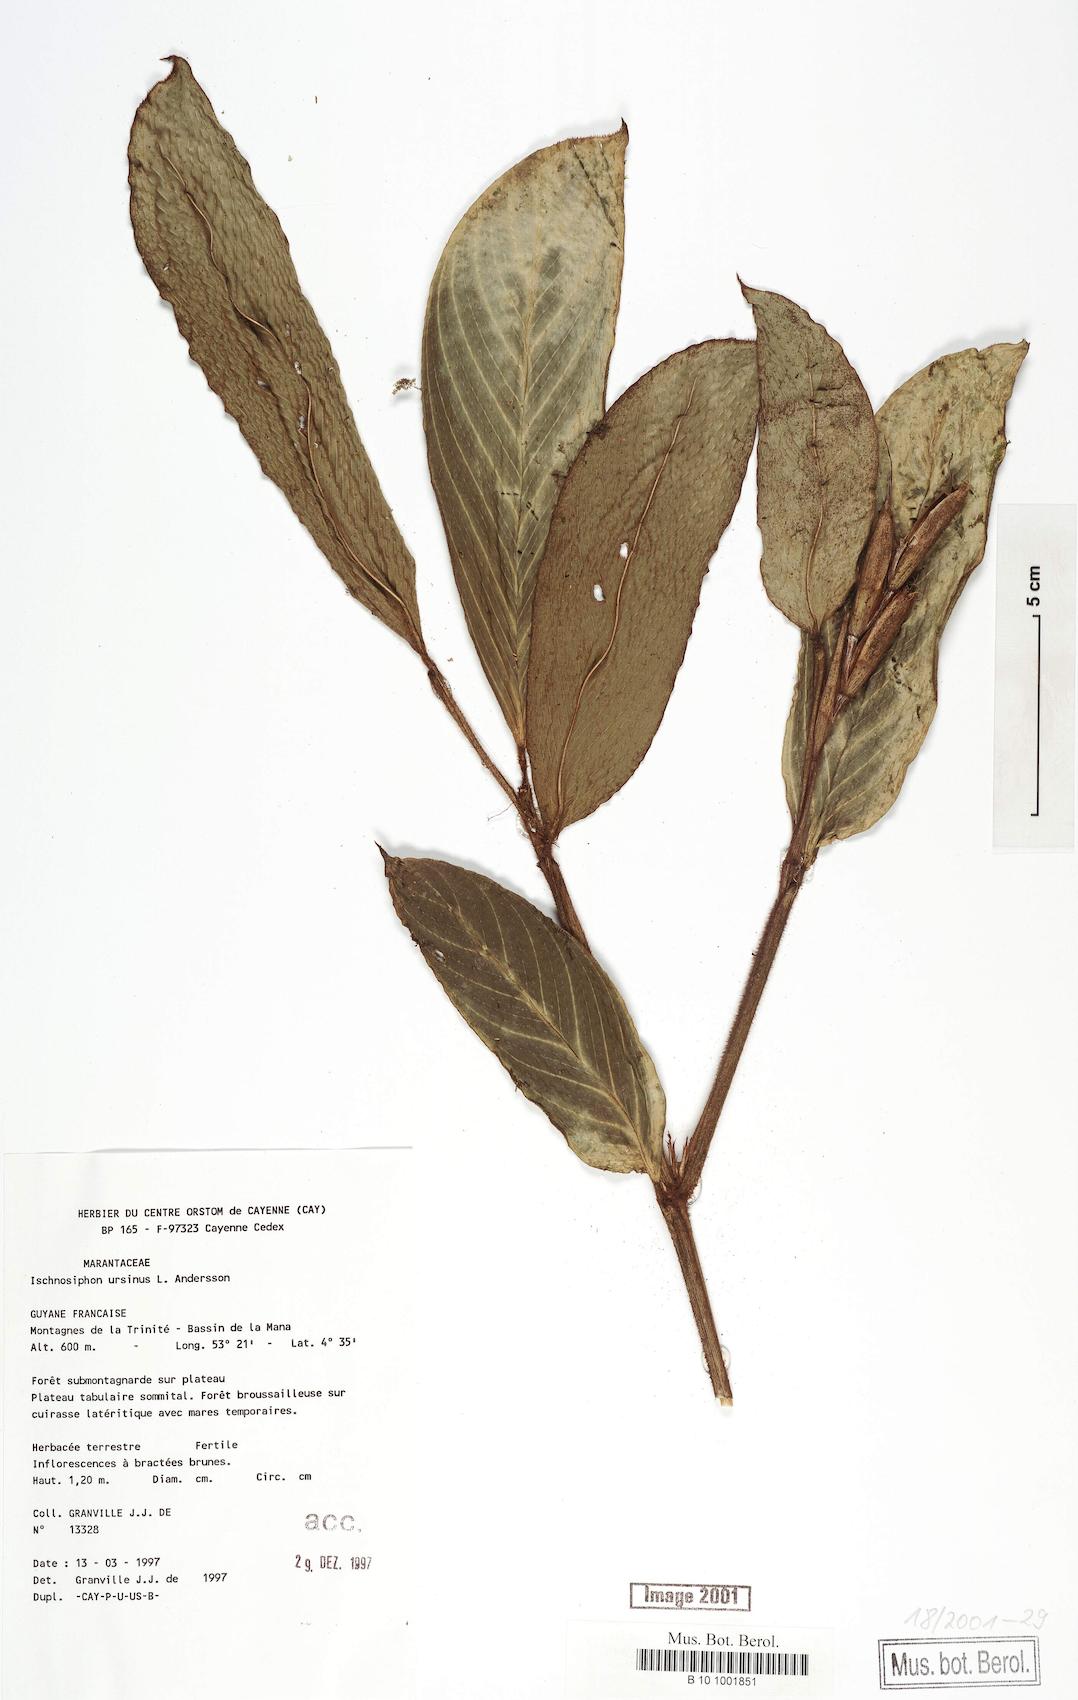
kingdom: Plantae
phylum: Tracheophyta
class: Liliopsida
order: Zingiberales
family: Marantaceae
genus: Ischnosiphon
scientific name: Ischnosiphon ursinus
